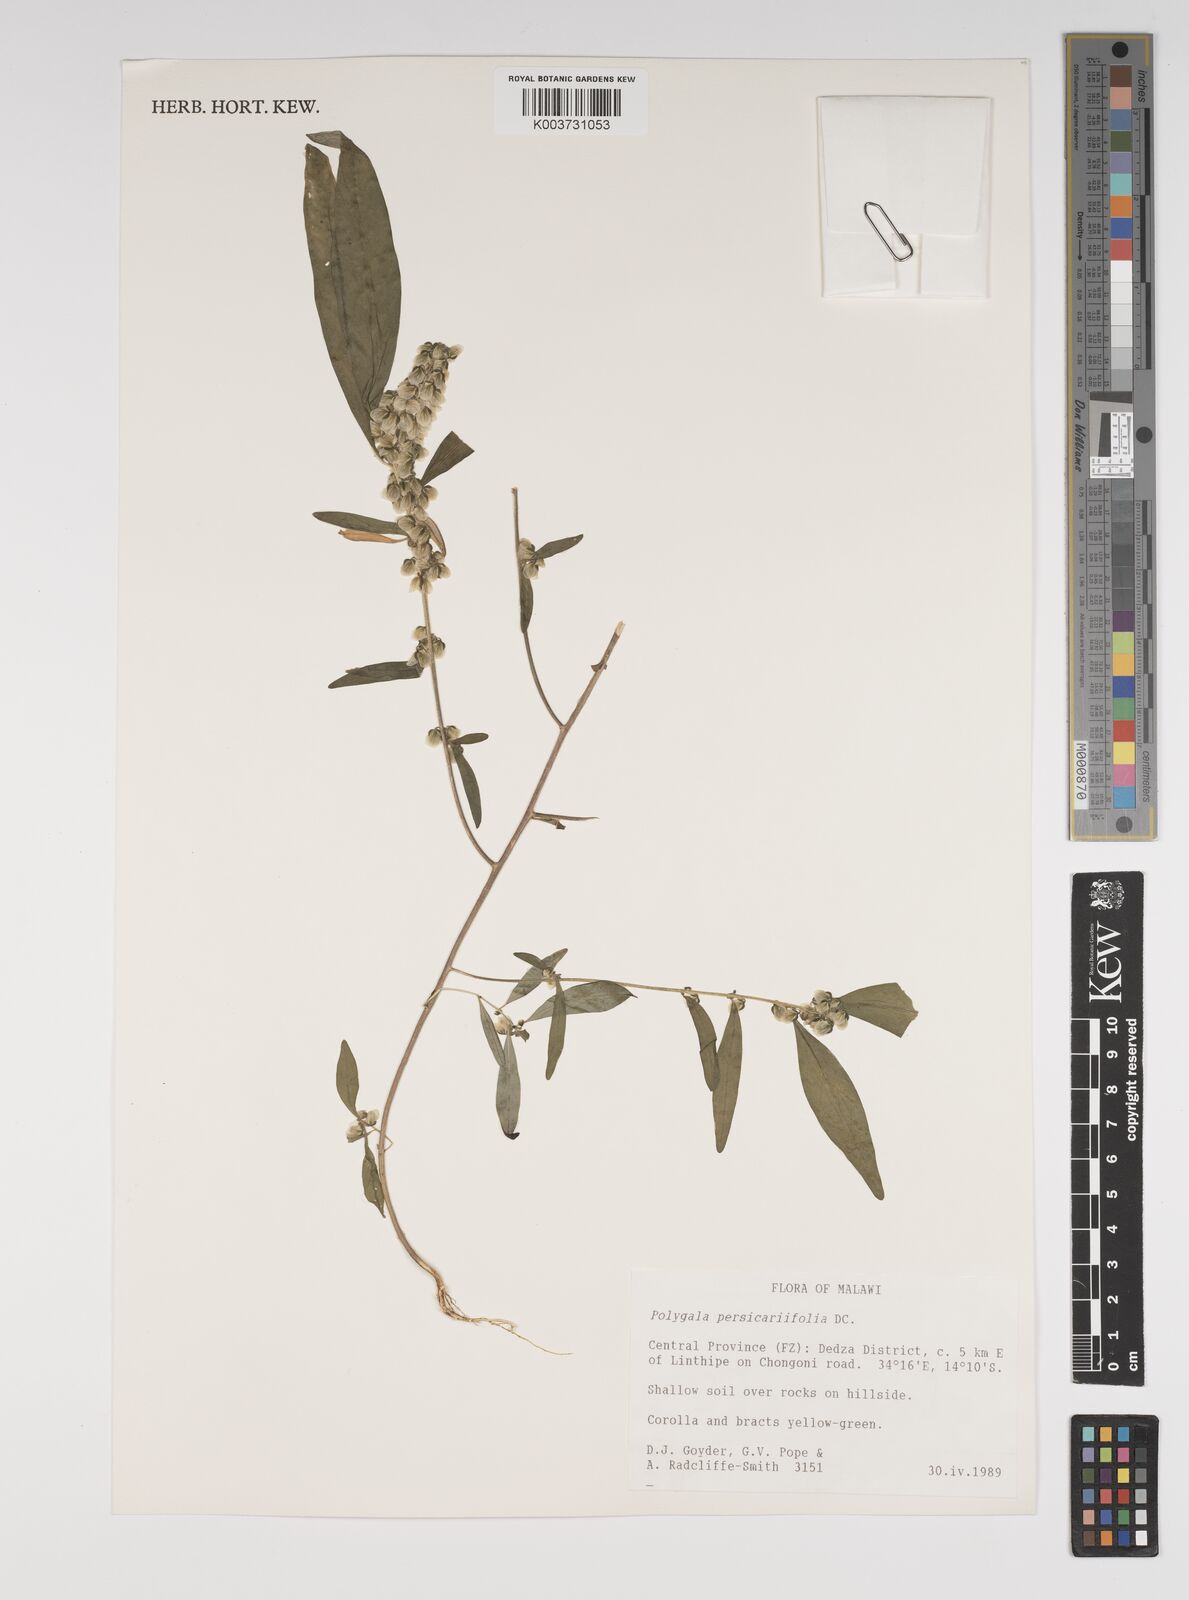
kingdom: Plantae
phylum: Tracheophyta
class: Magnoliopsida
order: Fabales
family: Polygalaceae
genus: Polygala
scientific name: Polygala persicariifolia
